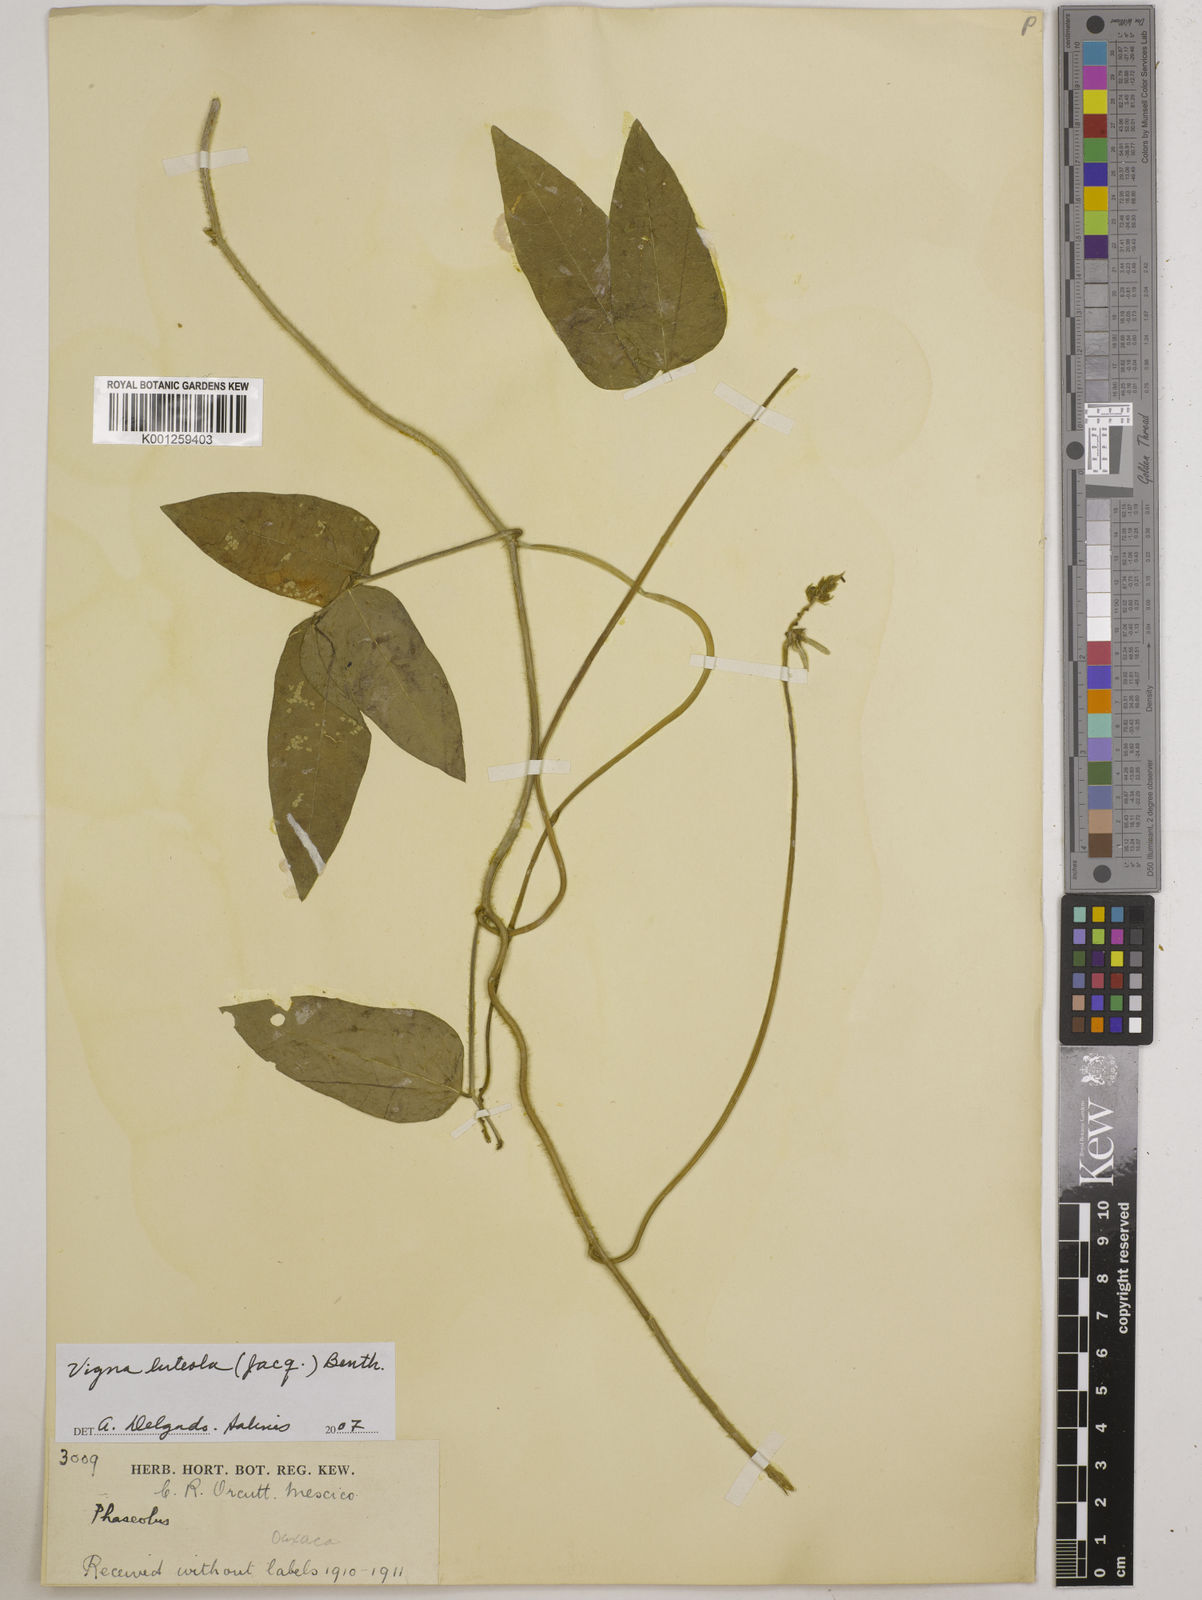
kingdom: Plantae
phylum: Tracheophyta
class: Magnoliopsida
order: Fabales
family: Fabaceae
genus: Vigna
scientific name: Vigna luteola
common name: Hairypod cowpea
